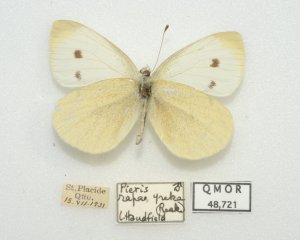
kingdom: Animalia
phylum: Arthropoda
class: Insecta
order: Lepidoptera
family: Pieridae
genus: Pieris
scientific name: Pieris rapae
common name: Cabbage White
